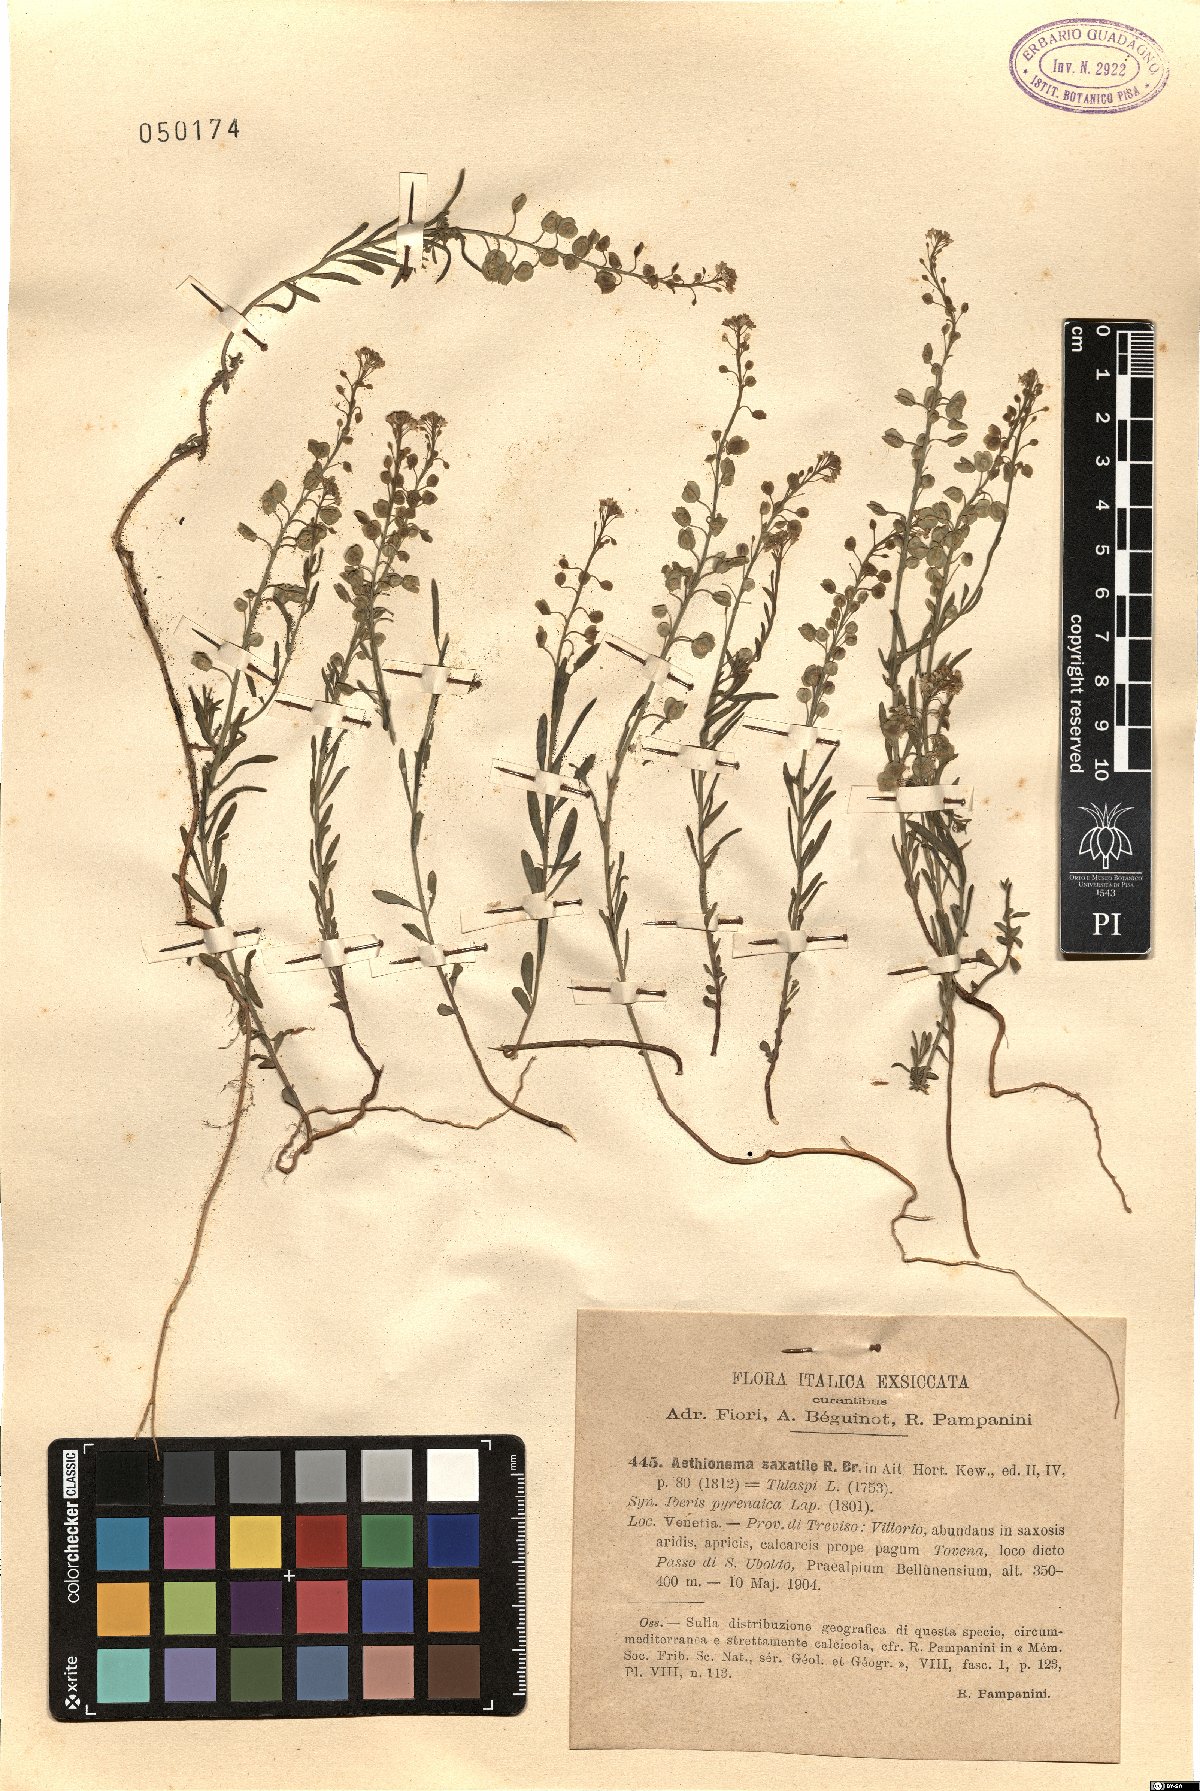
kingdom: Plantae
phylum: Tracheophyta
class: Magnoliopsida
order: Brassicales
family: Brassicaceae
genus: Aethionema
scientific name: Aethionema saxatile
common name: Burnt candytuft
